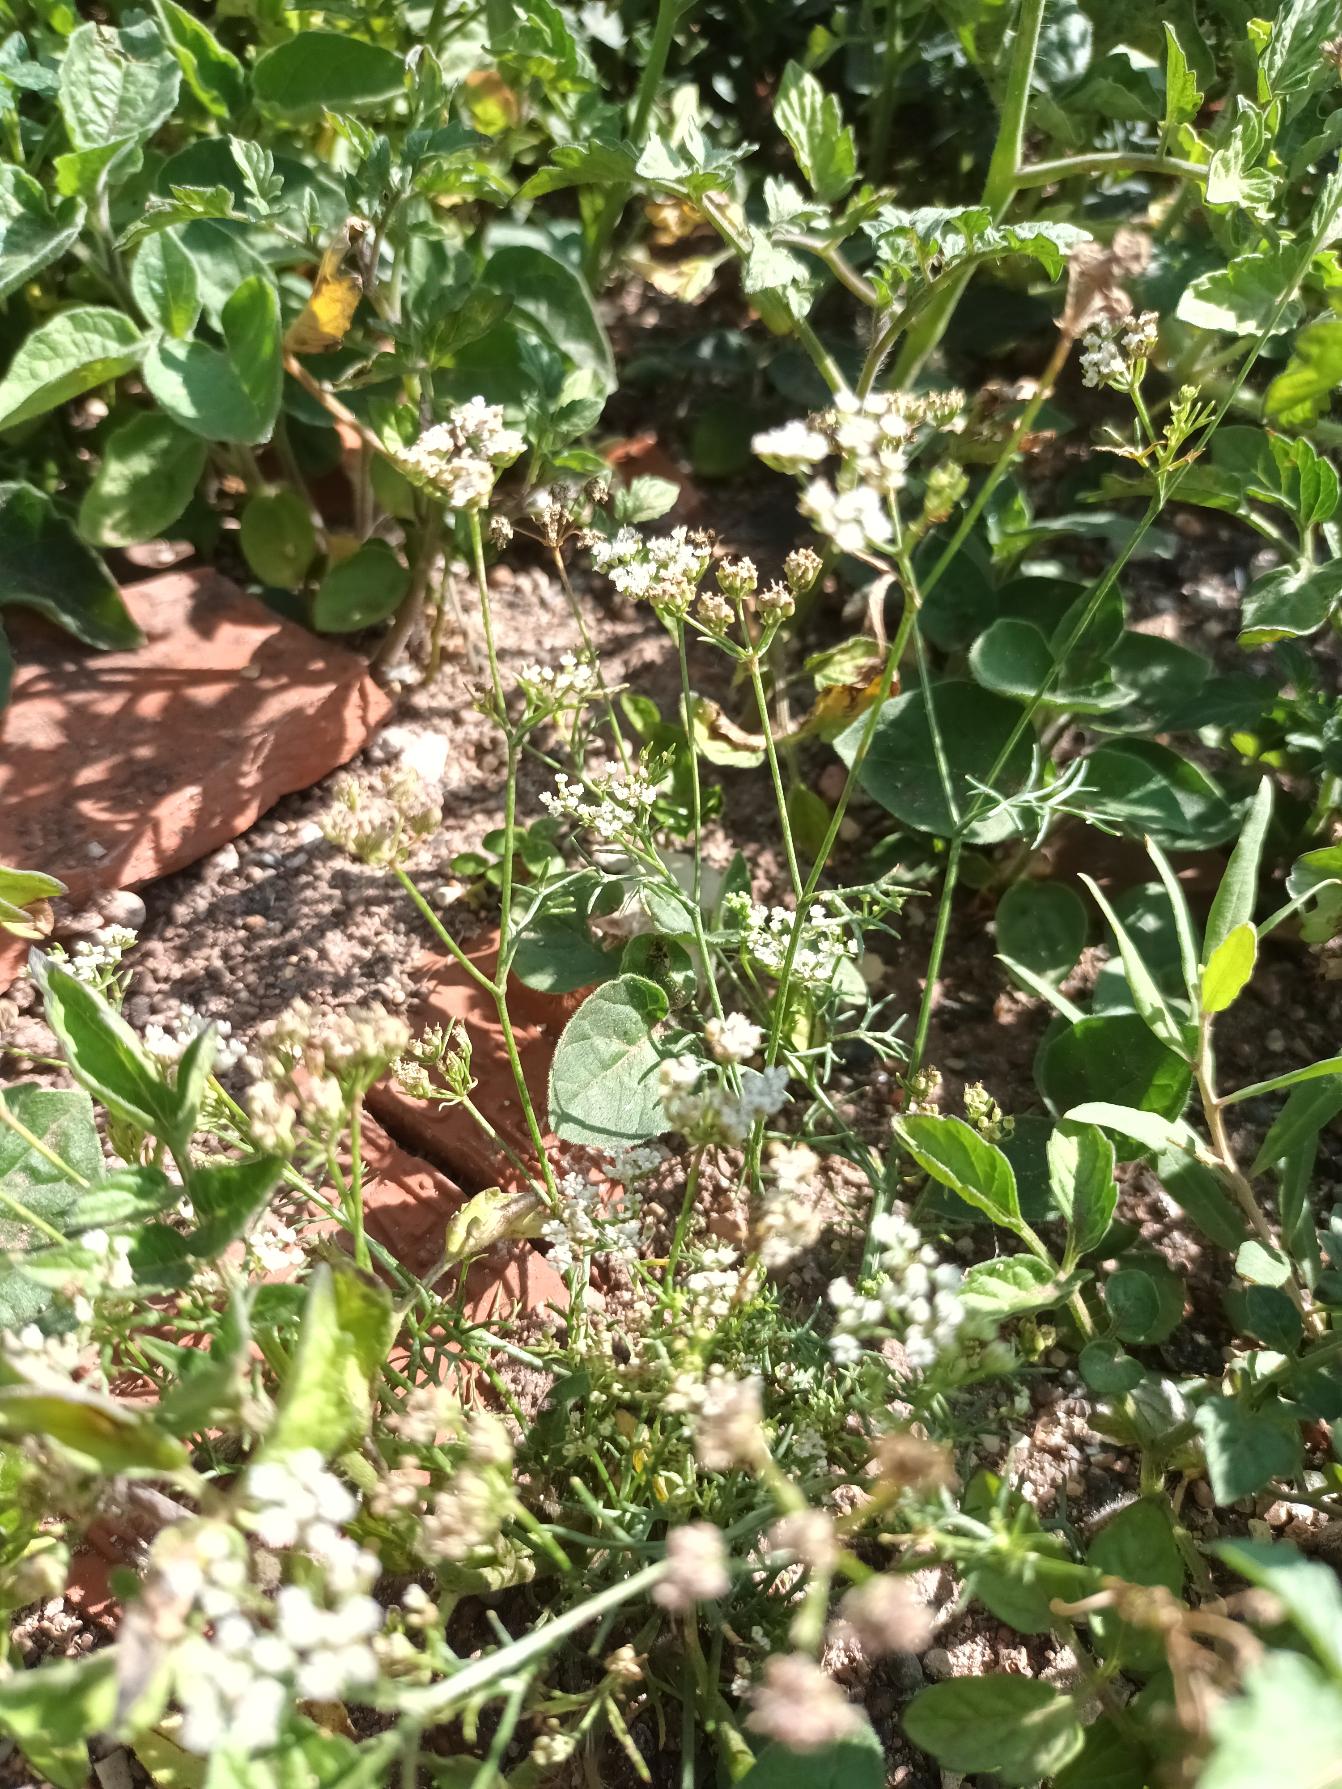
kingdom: Plantae
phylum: Tracheophyta
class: Magnoliopsida
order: Apiales
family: Apiaceae
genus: Coriandrum
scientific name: Coriandrum sativum
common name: Koriander
